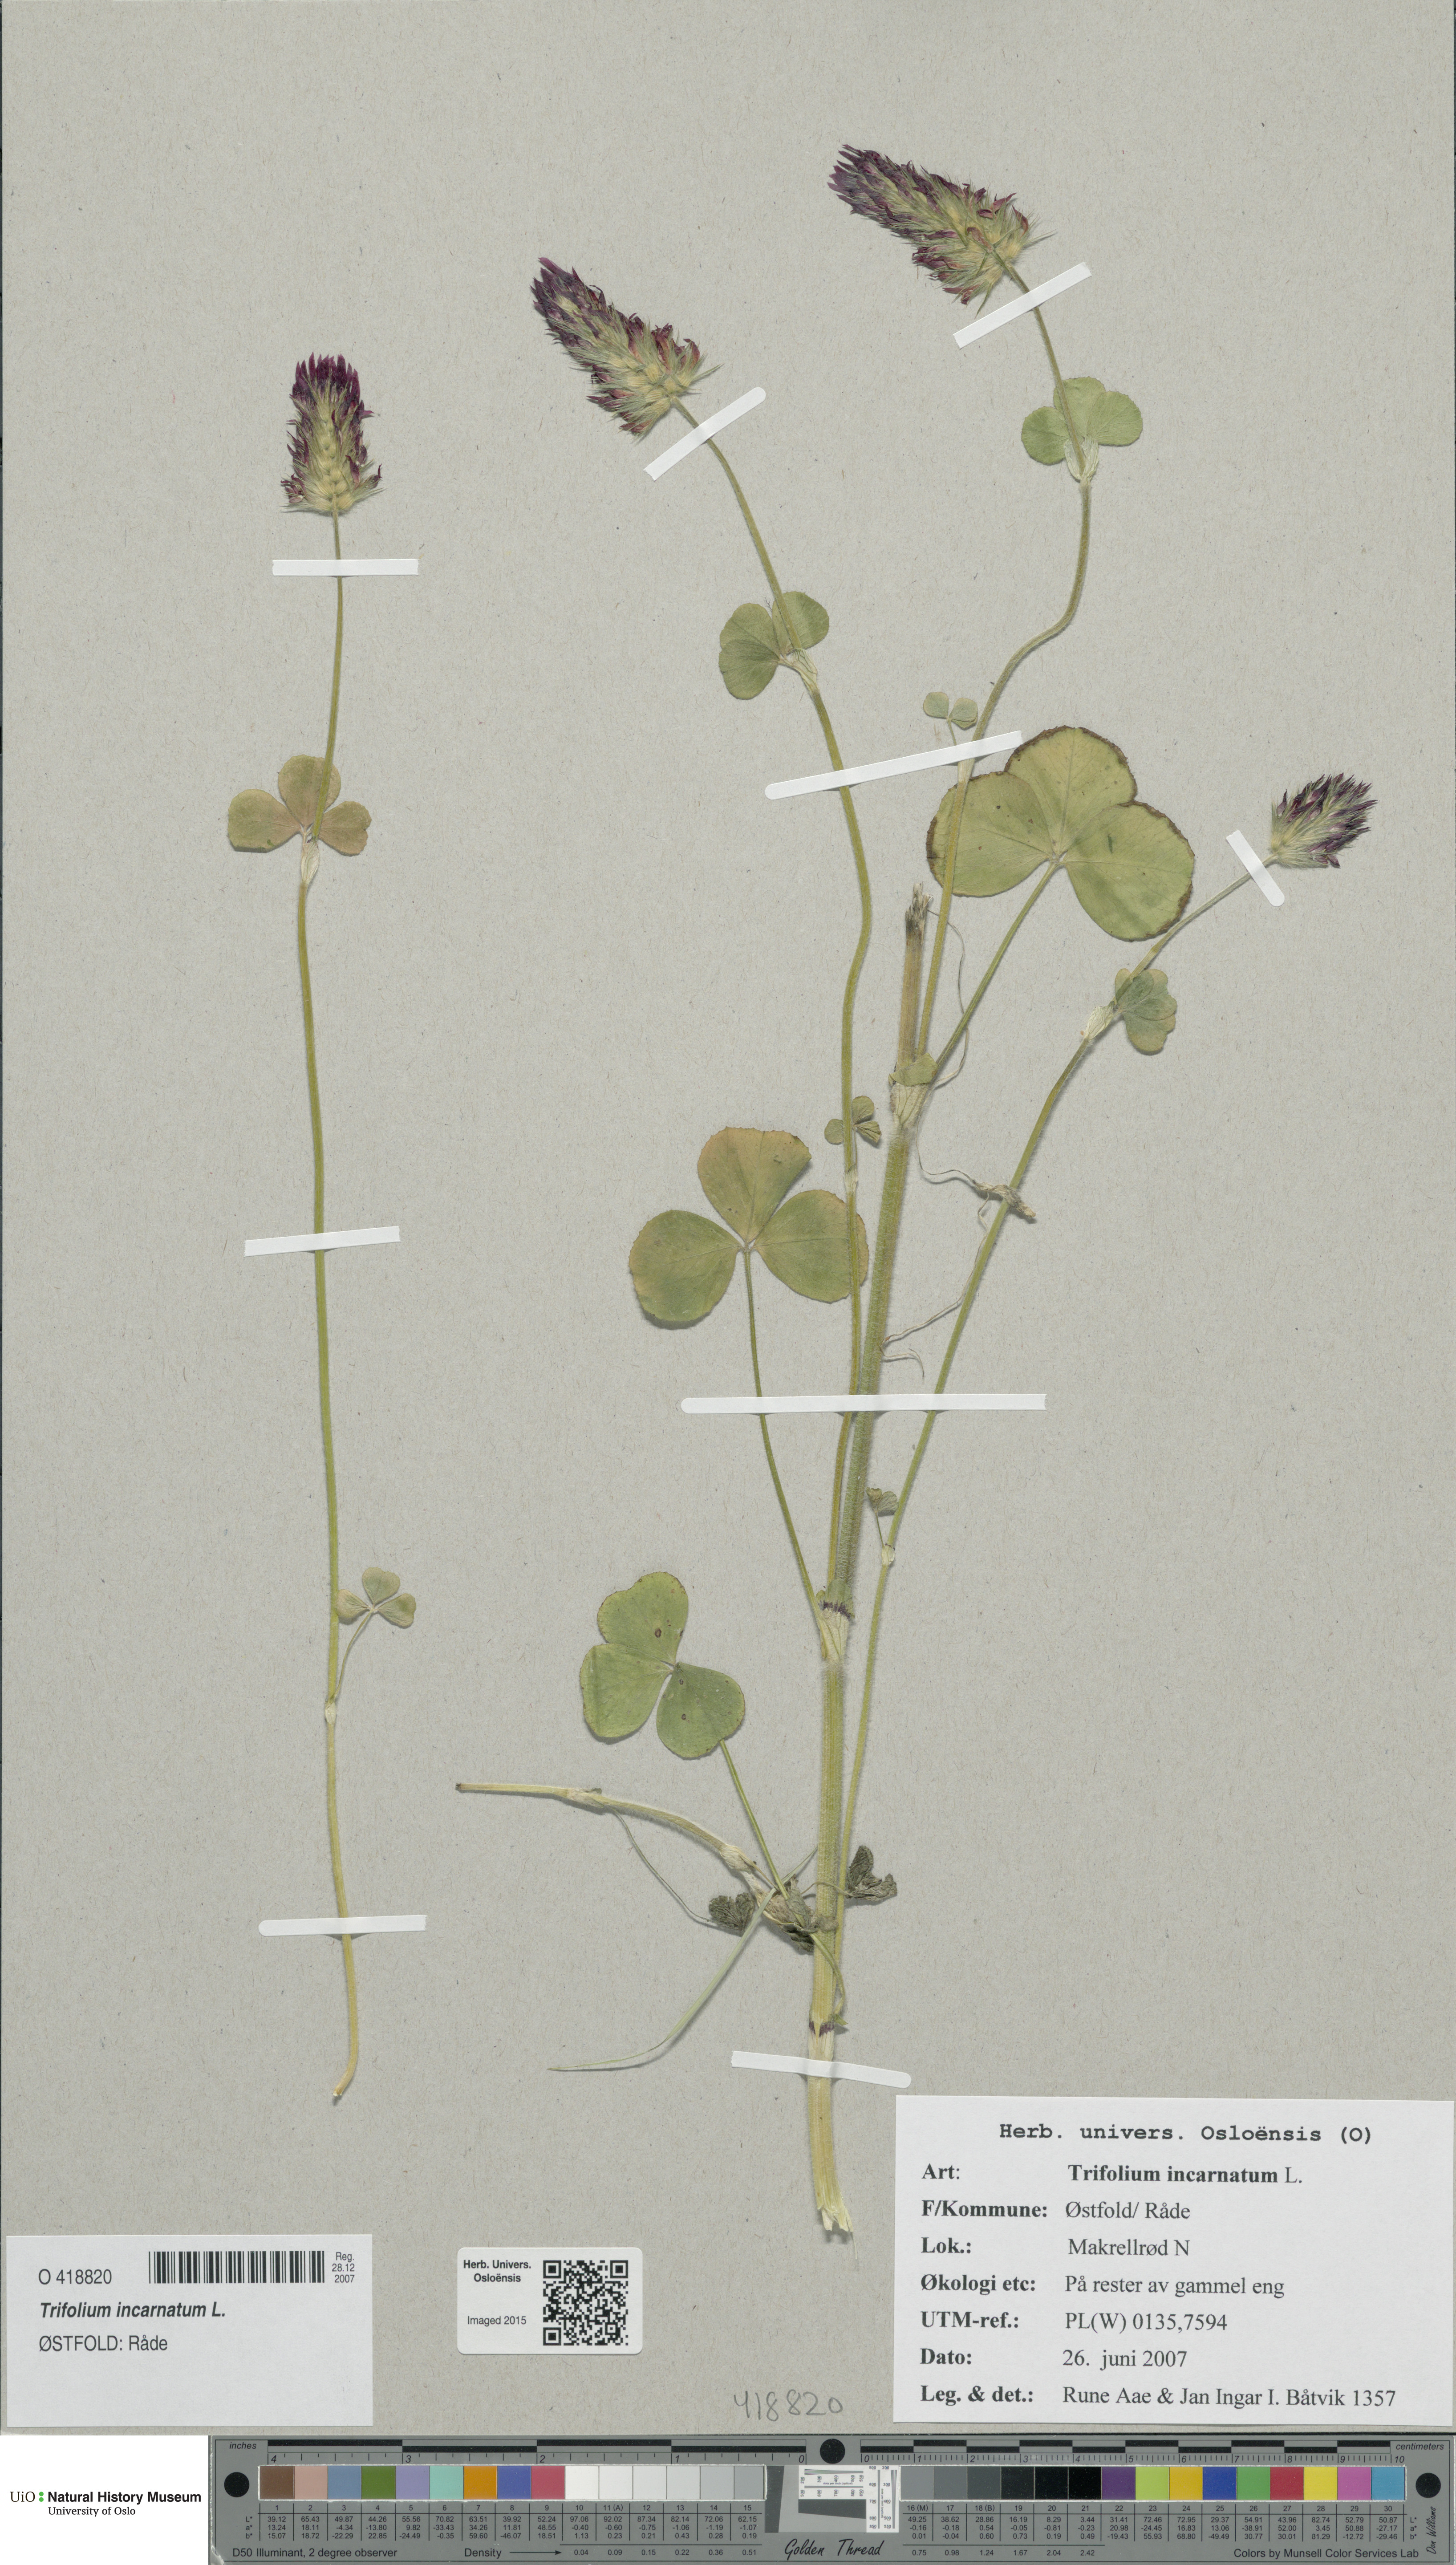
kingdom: Plantae
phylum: Tracheophyta
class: Magnoliopsida
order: Fabales
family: Fabaceae
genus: Trifolium
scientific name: Trifolium incarnatum
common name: Crimson clover
